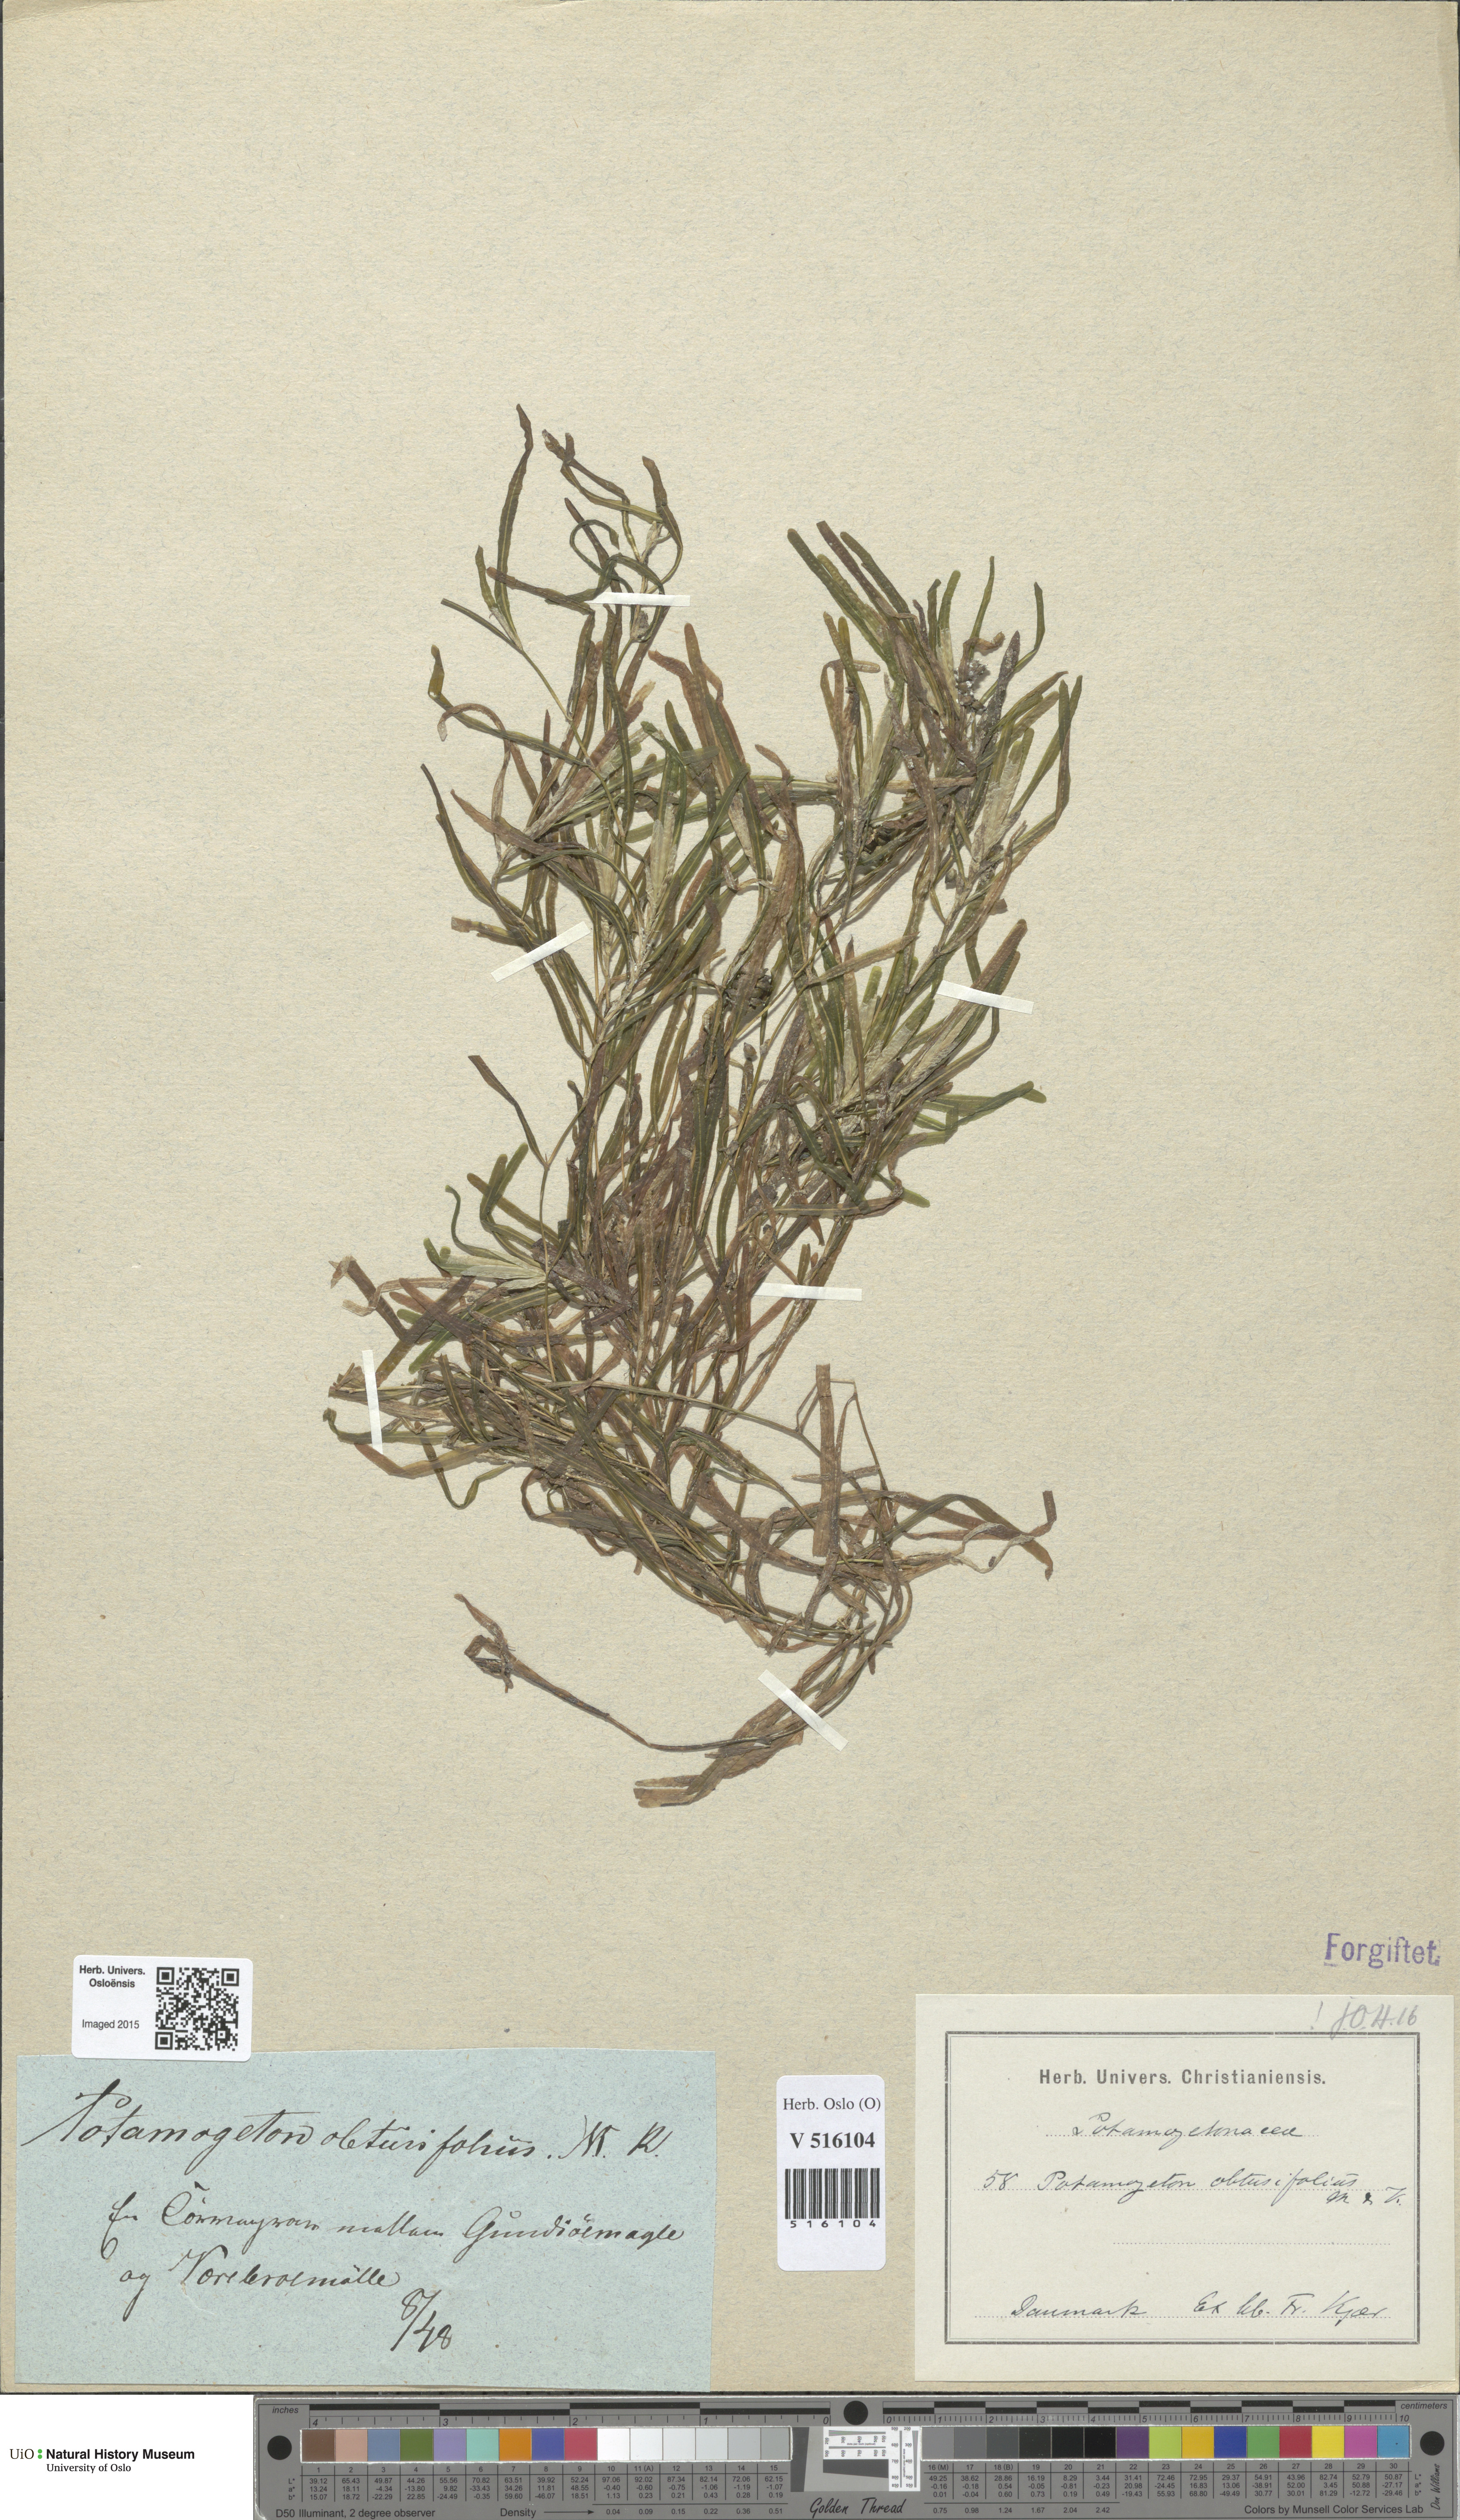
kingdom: Plantae
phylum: Tracheophyta
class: Liliopsida
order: Alismatales
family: Potamogetonaceae
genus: Potamogeton
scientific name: Potamogeton obtusifolius
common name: Blunt-leaved pondweed
